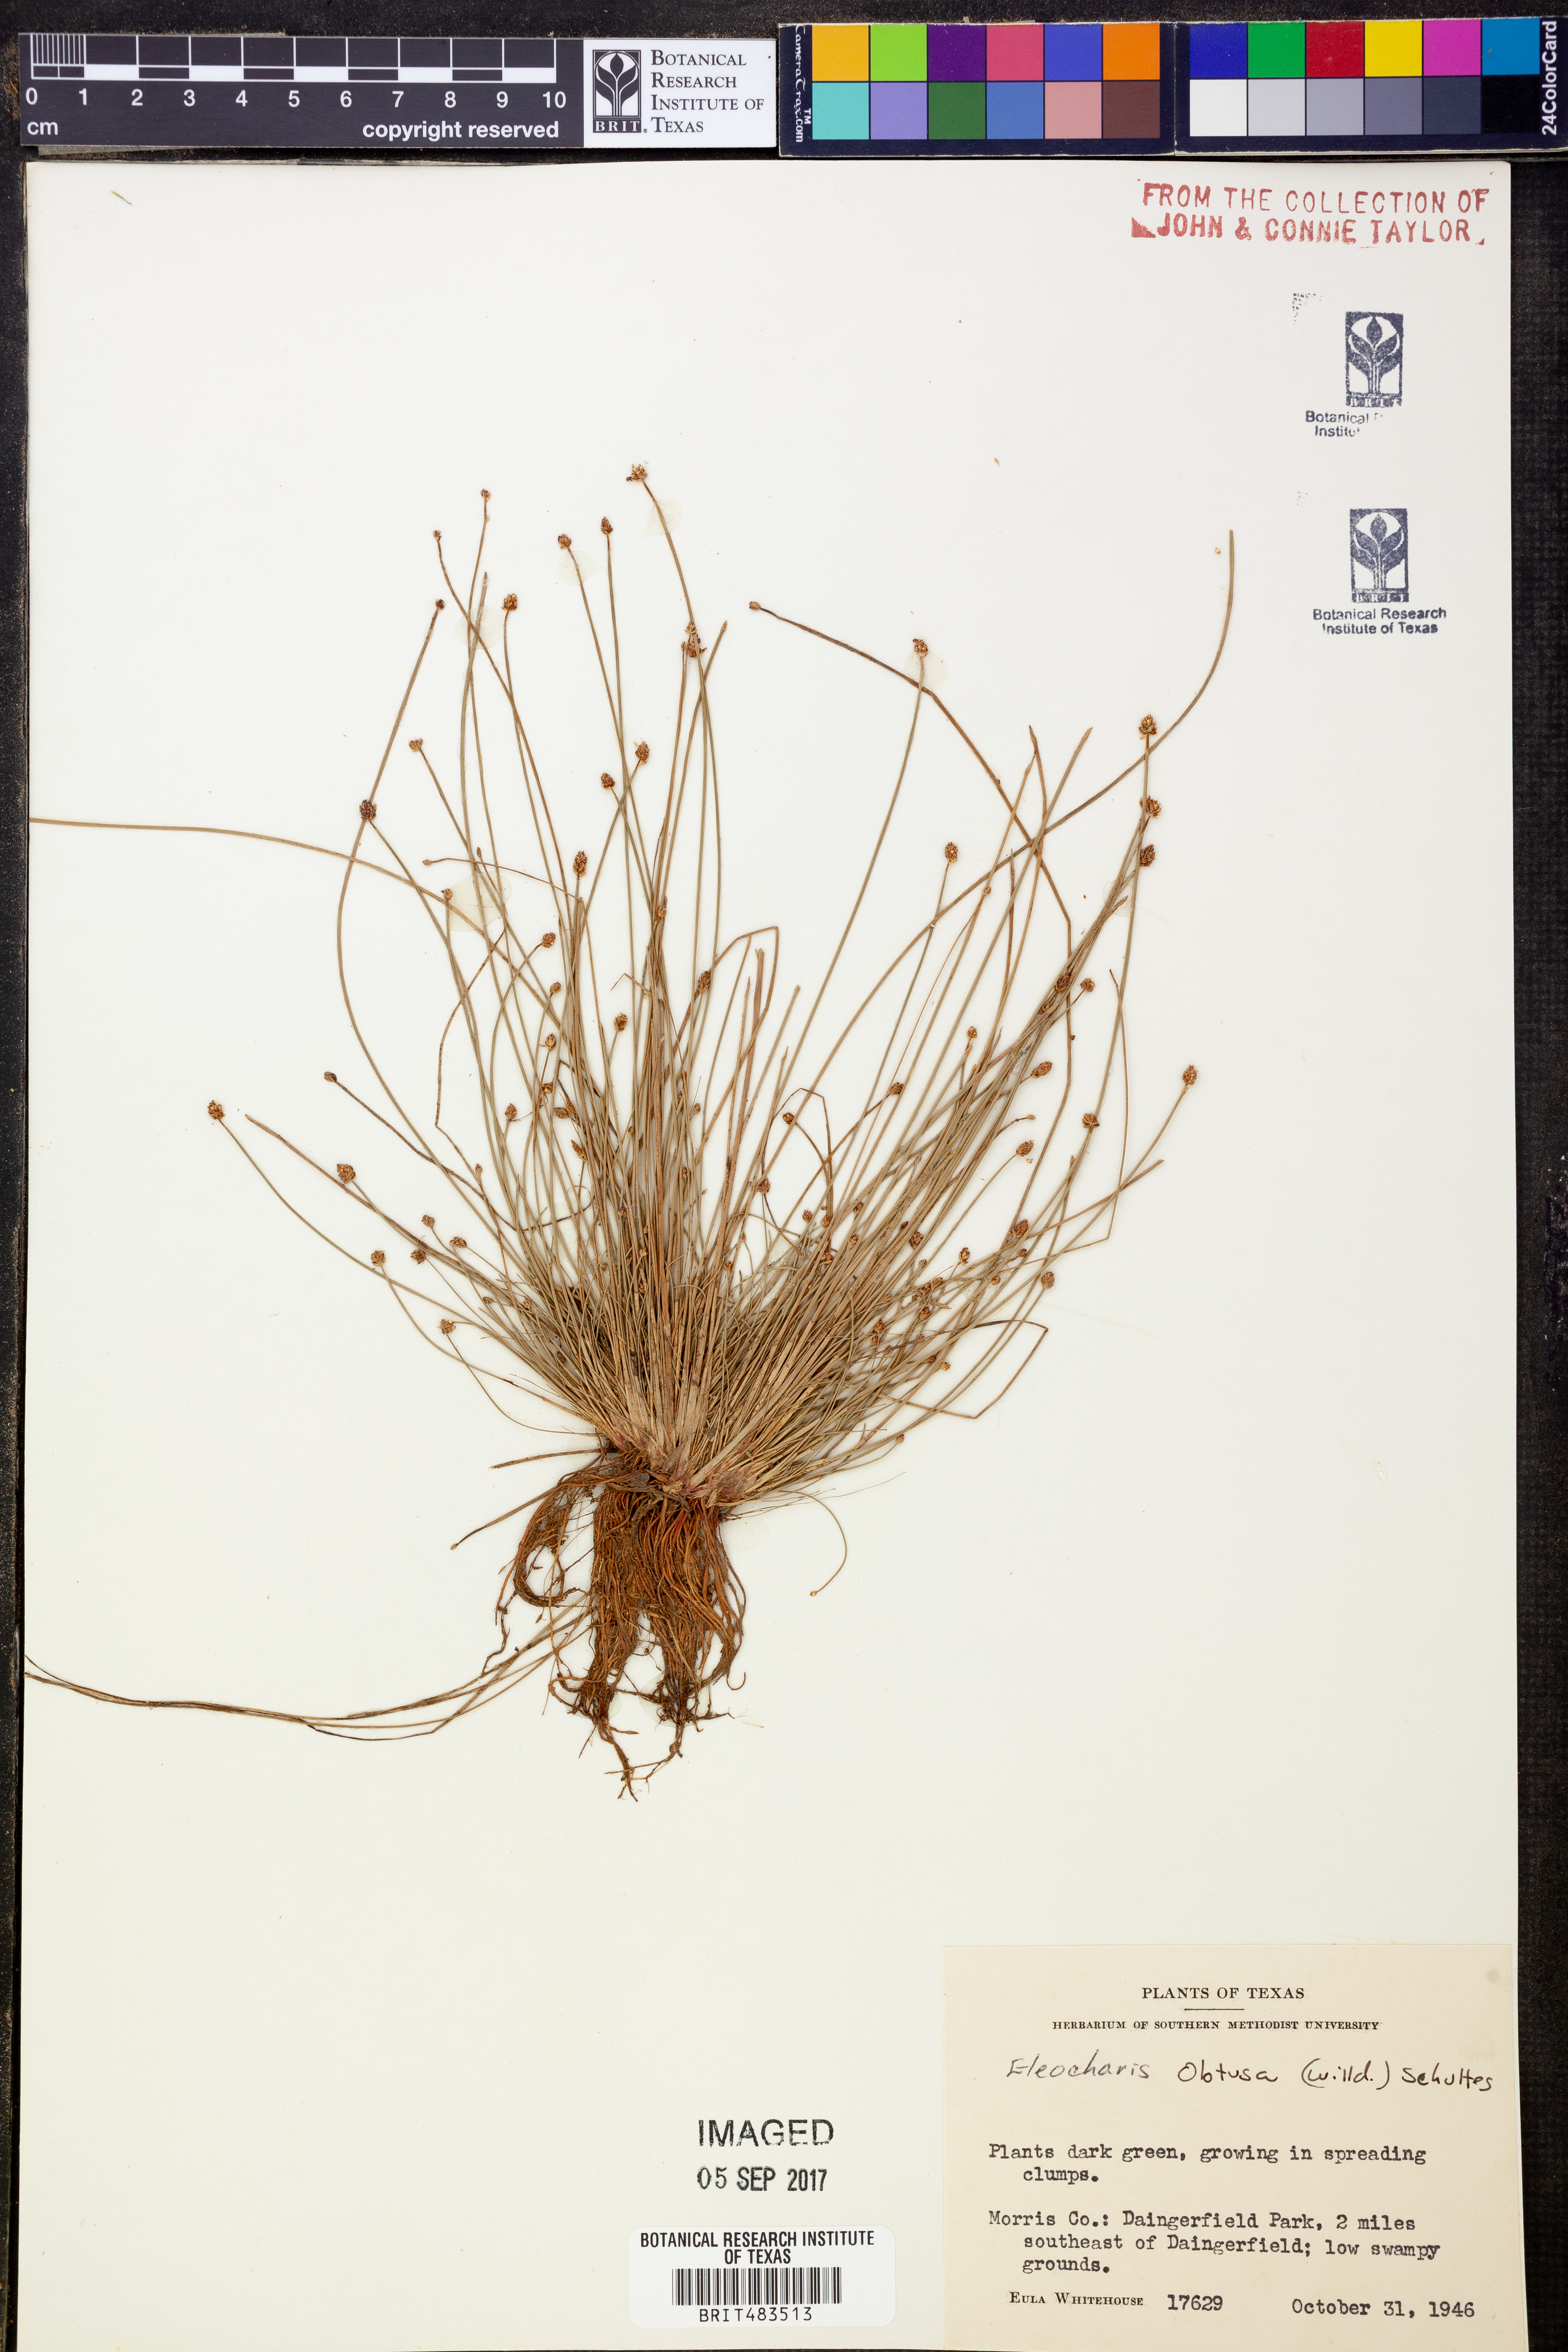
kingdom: Plantae
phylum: Tracheophyta
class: Liliopsida
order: Poales
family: Cyperaceae
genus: Eleocharis
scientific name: Eleocharis obtusa
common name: Blunt spikerush
